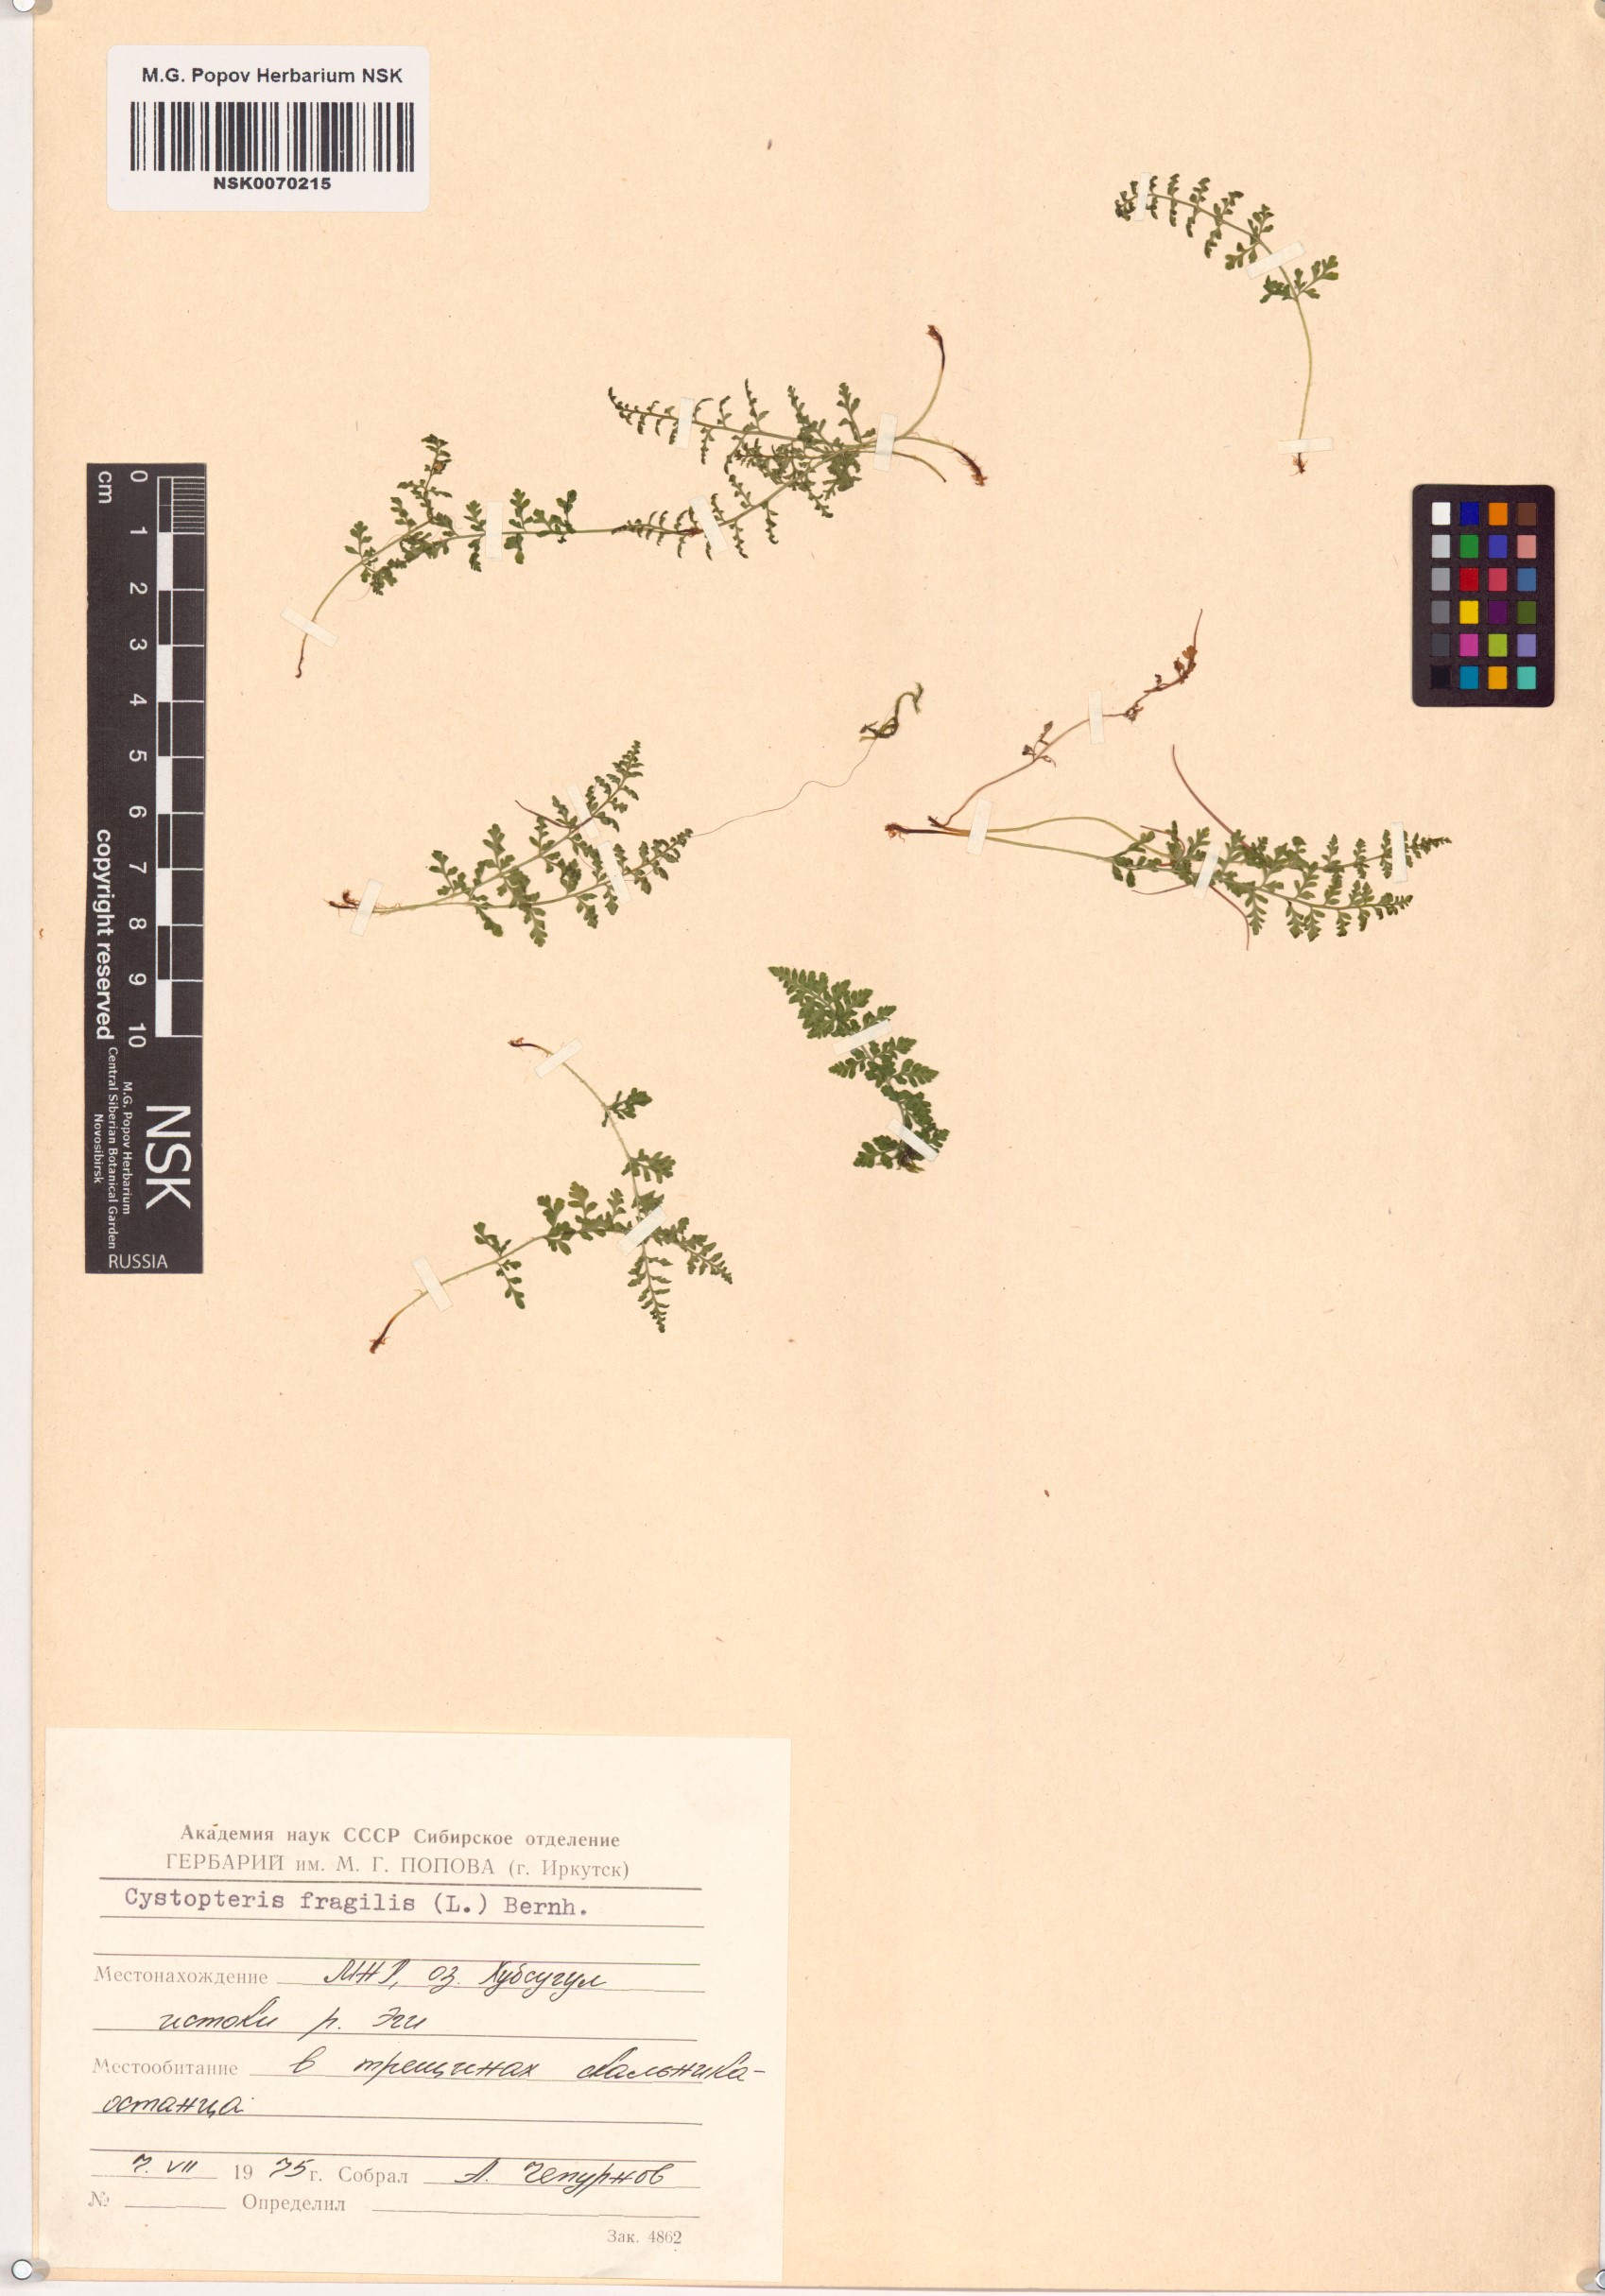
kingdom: Plantae
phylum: Tracheophyta
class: Polypodiopsida
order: Polypodiales
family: Cystopteridaceae
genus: Cystopteris
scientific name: Cystopteris fragilis
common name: Brittle bladder fern
